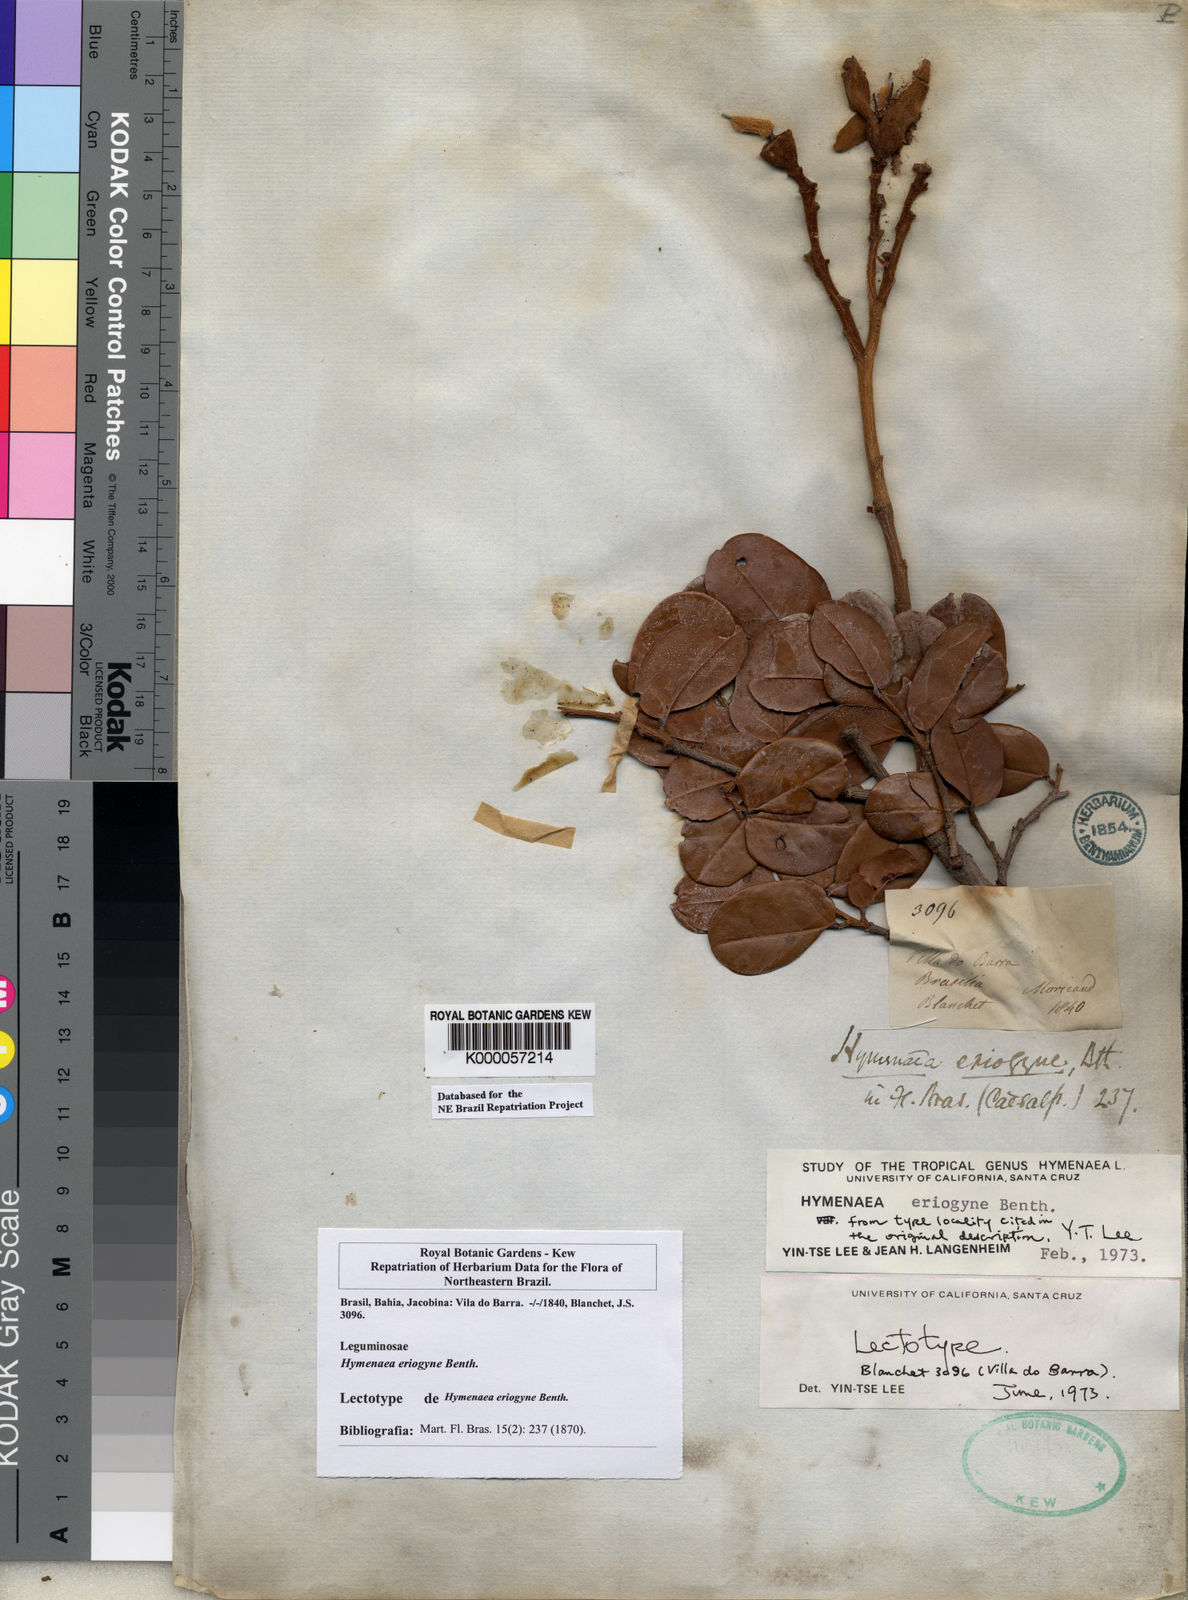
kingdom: Plantae
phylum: Tracheophyta
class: Magnoliopsida
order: Fabales
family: Fabaceae
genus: Hymenaea
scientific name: Hymenaea eriogyne
